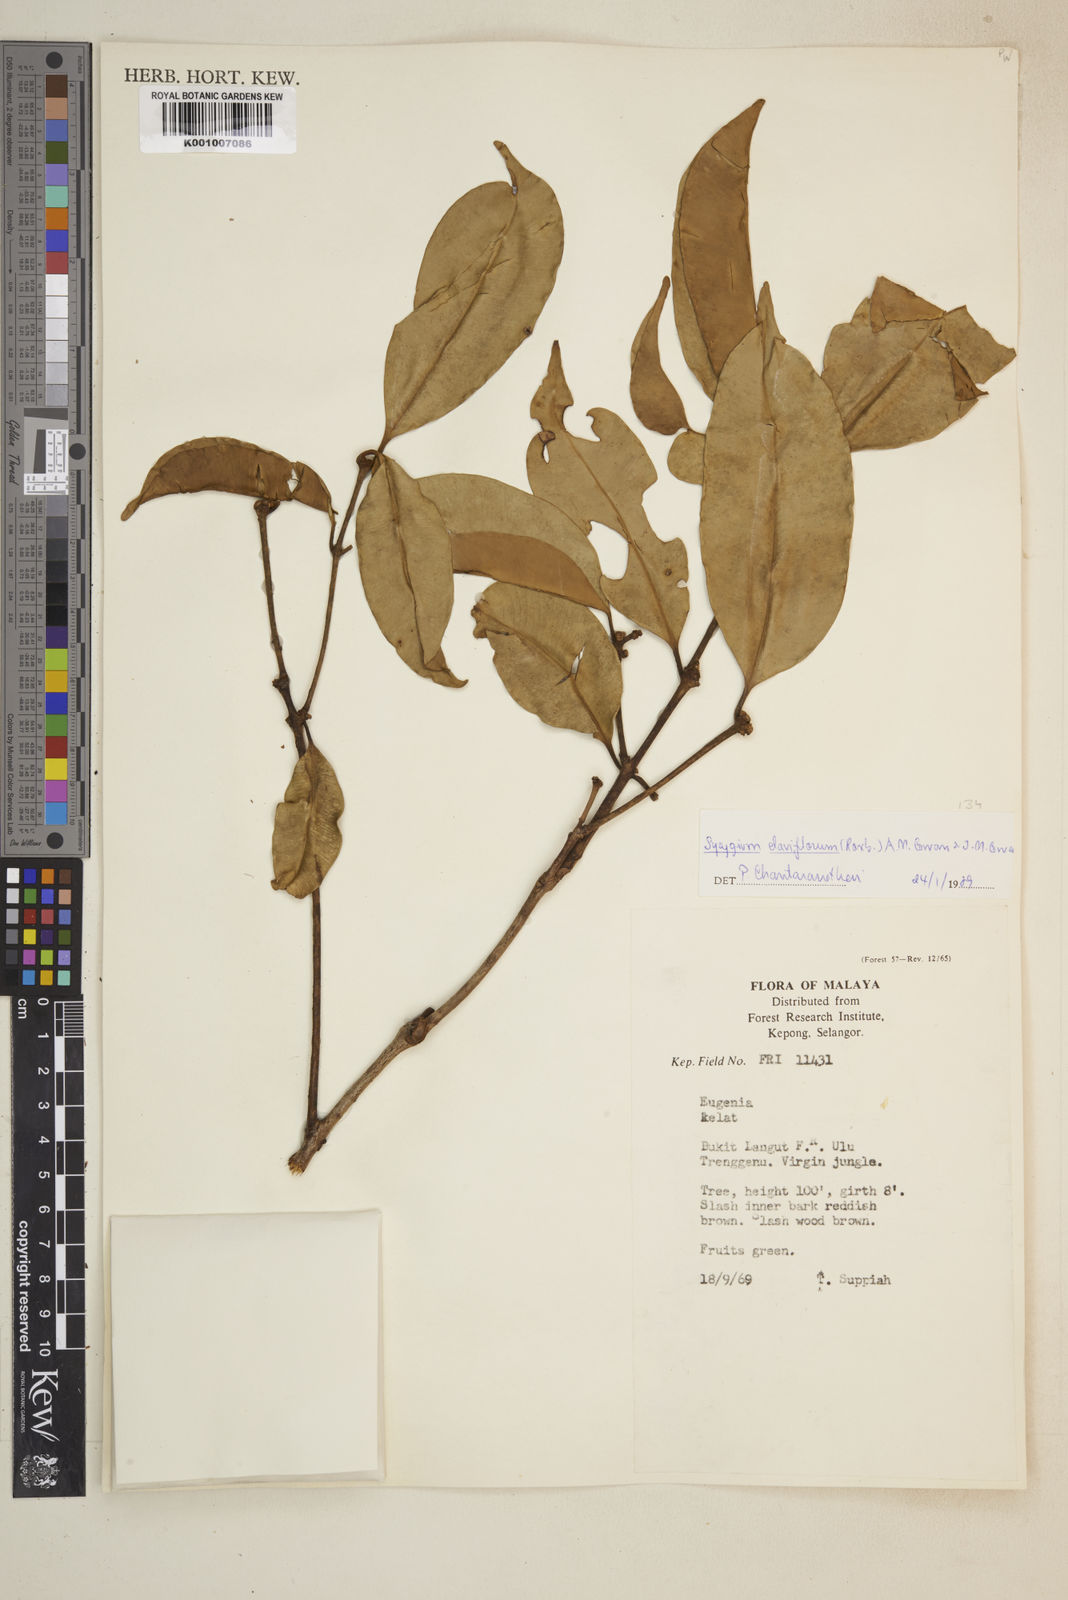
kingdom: Plantae
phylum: Tracheophyta
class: Magnoliopsida
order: Myrtales
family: Myrtaceae
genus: Syzygium
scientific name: Syzygium claviflorum
